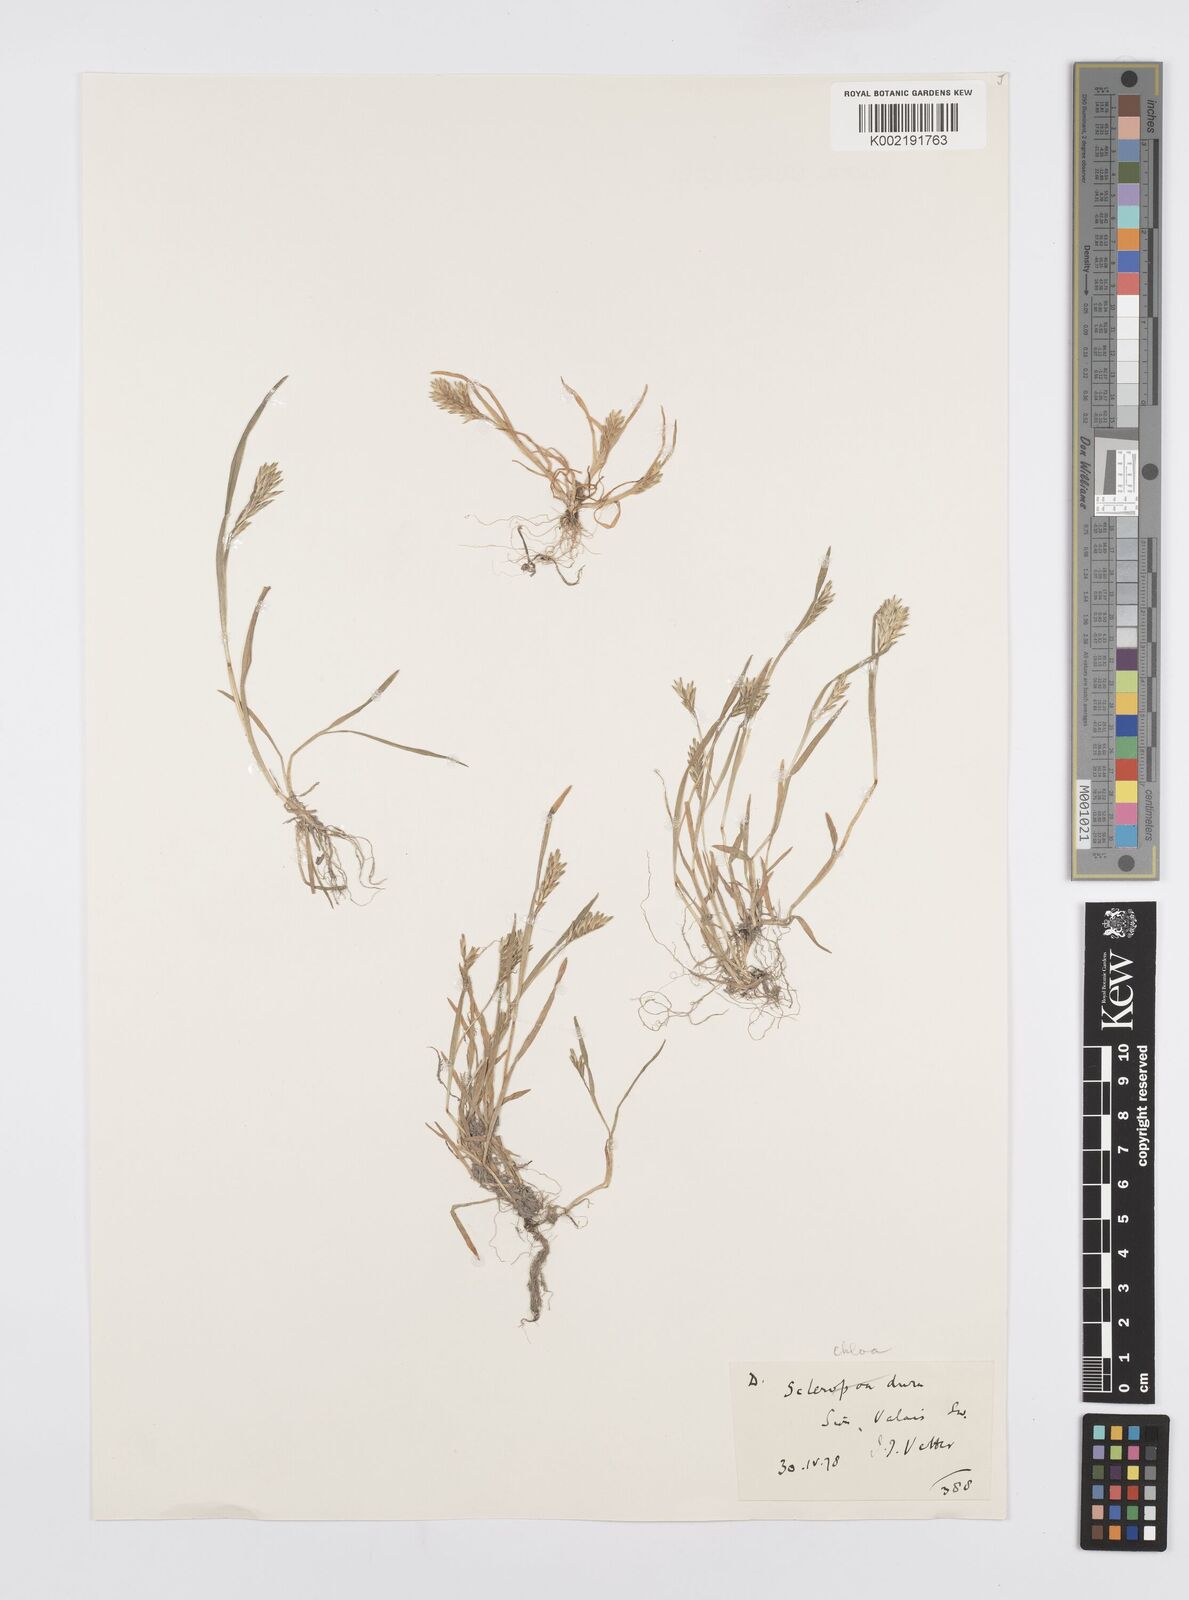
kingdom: Plantae
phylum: Tracheophyta
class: Liliopsida
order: Poales
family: Poaceae
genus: Sclerochloa
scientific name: Sclerochloa dura
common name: Common hardgrass
